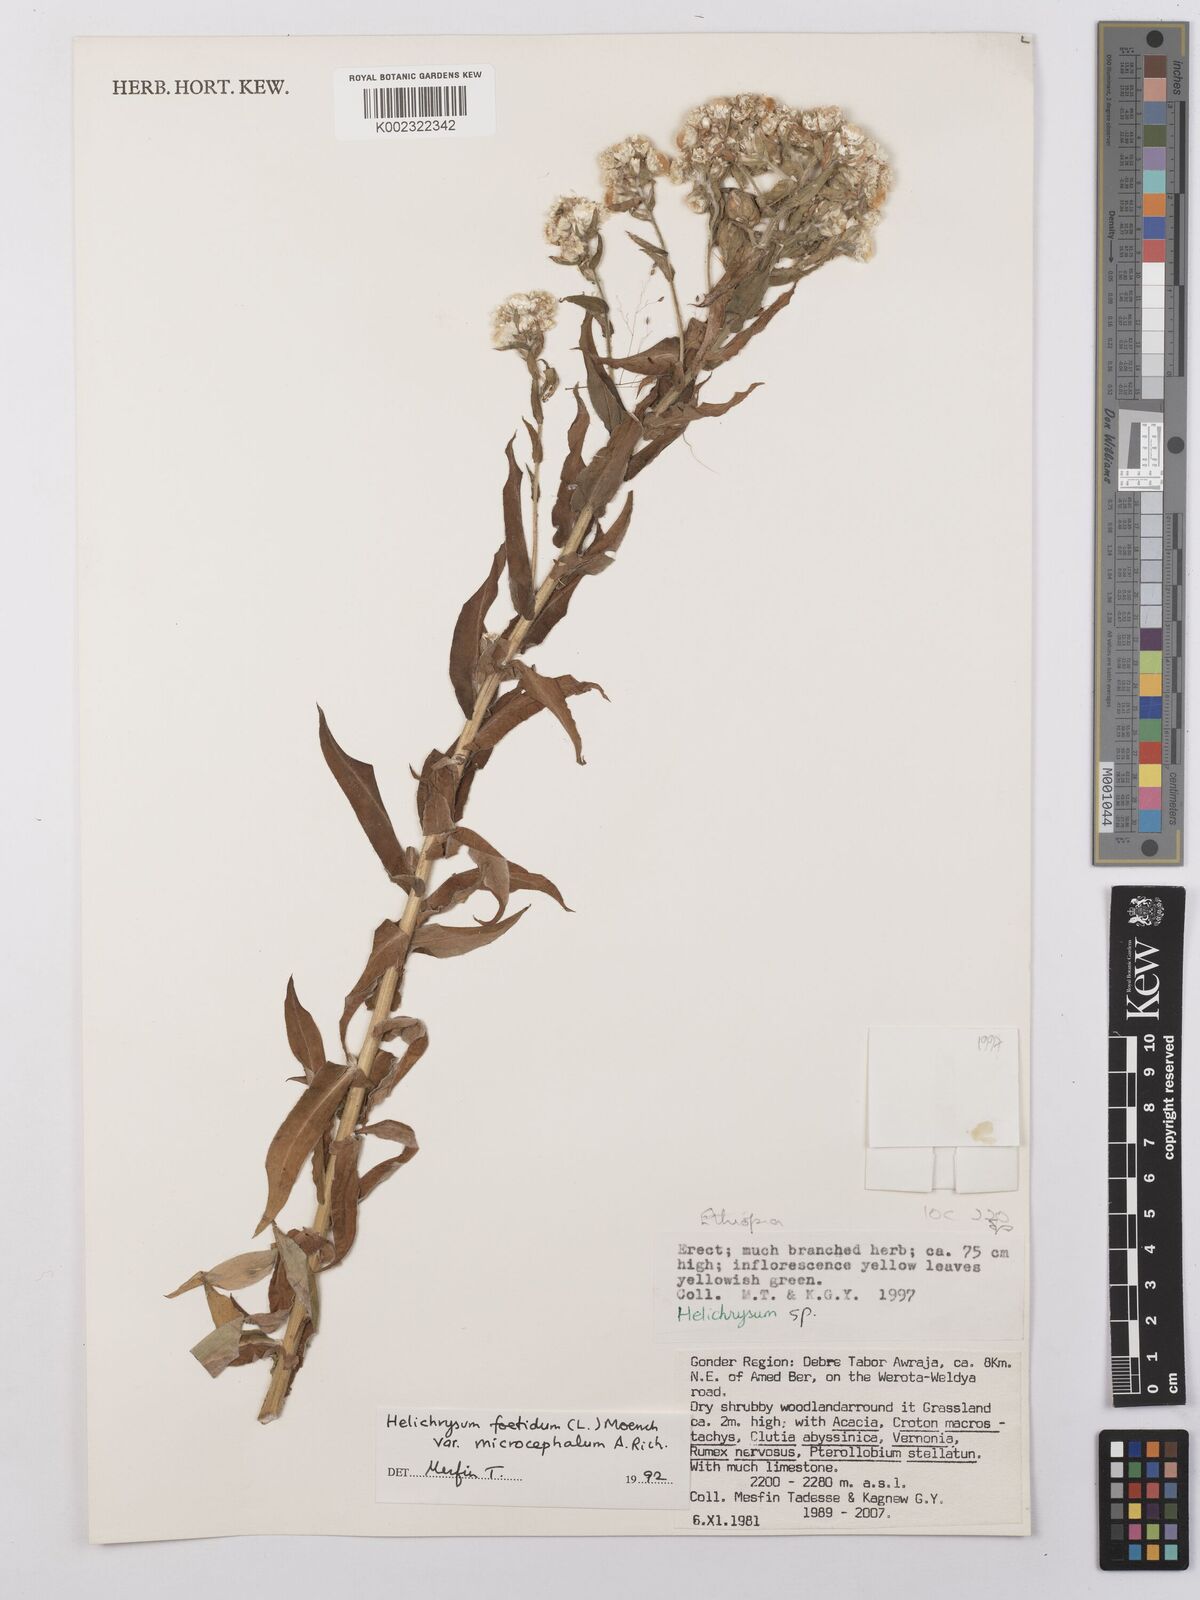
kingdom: Plantae
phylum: Tracheophyta
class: Magnoliopsida
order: Asterales
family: Asteraceae
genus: Helichrysum
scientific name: Helichrysum foetidum
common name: Stinking everlasting
